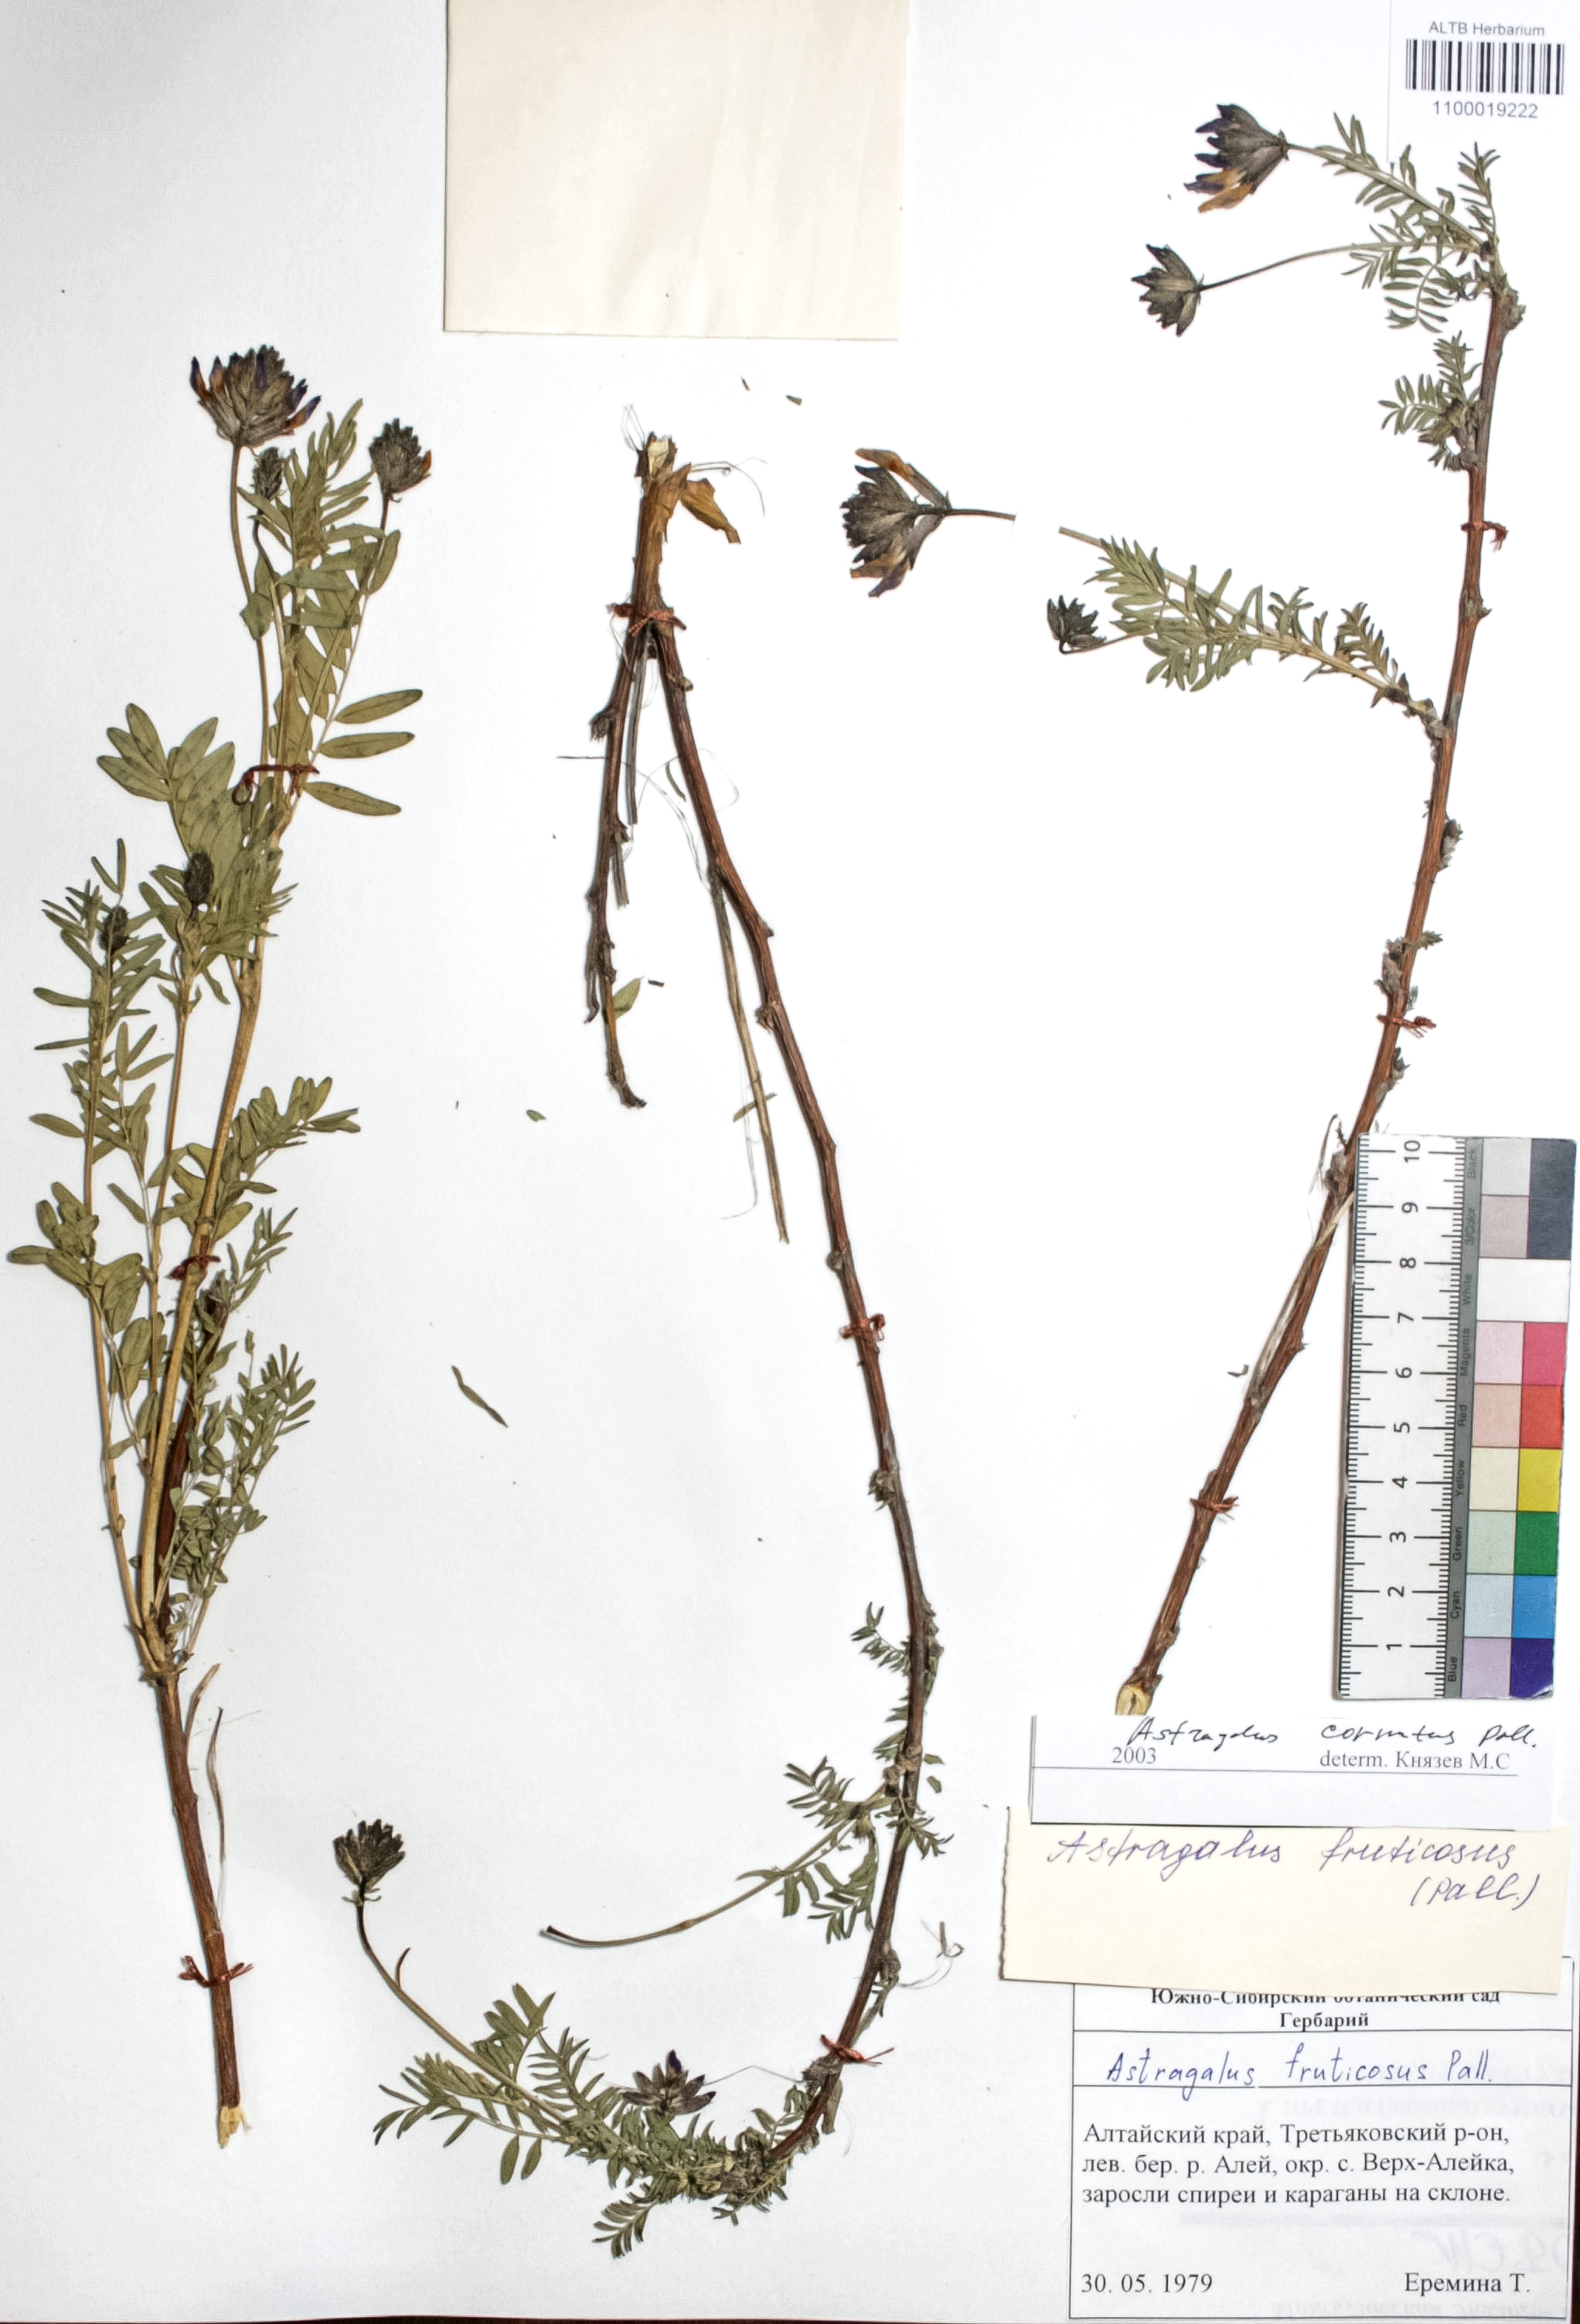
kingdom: Plantae
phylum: Tracheophyta
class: Magnoliopsida
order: Fabales
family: Fabaceae
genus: Astragalus
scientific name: Astragalus cornutus
